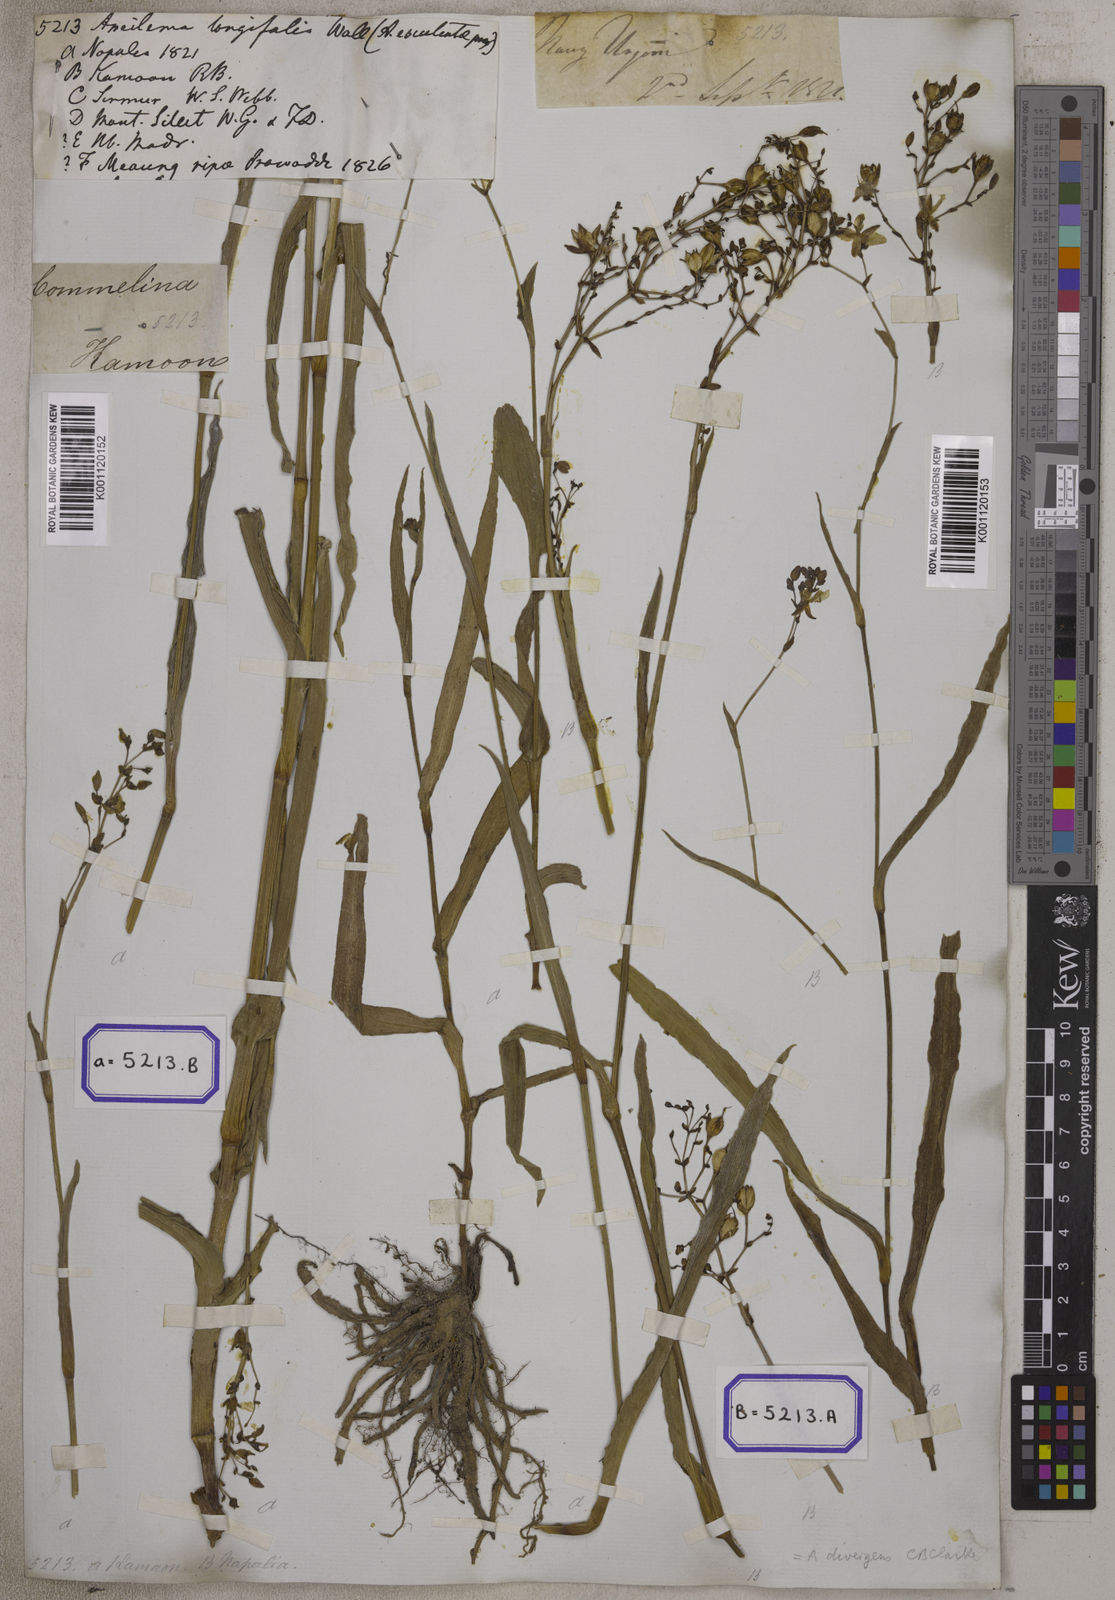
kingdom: Plantae
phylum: Tracheophyta
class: Liliopsida
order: Commelinales
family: Commelinaceae
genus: Aneilema
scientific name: Aneilema
